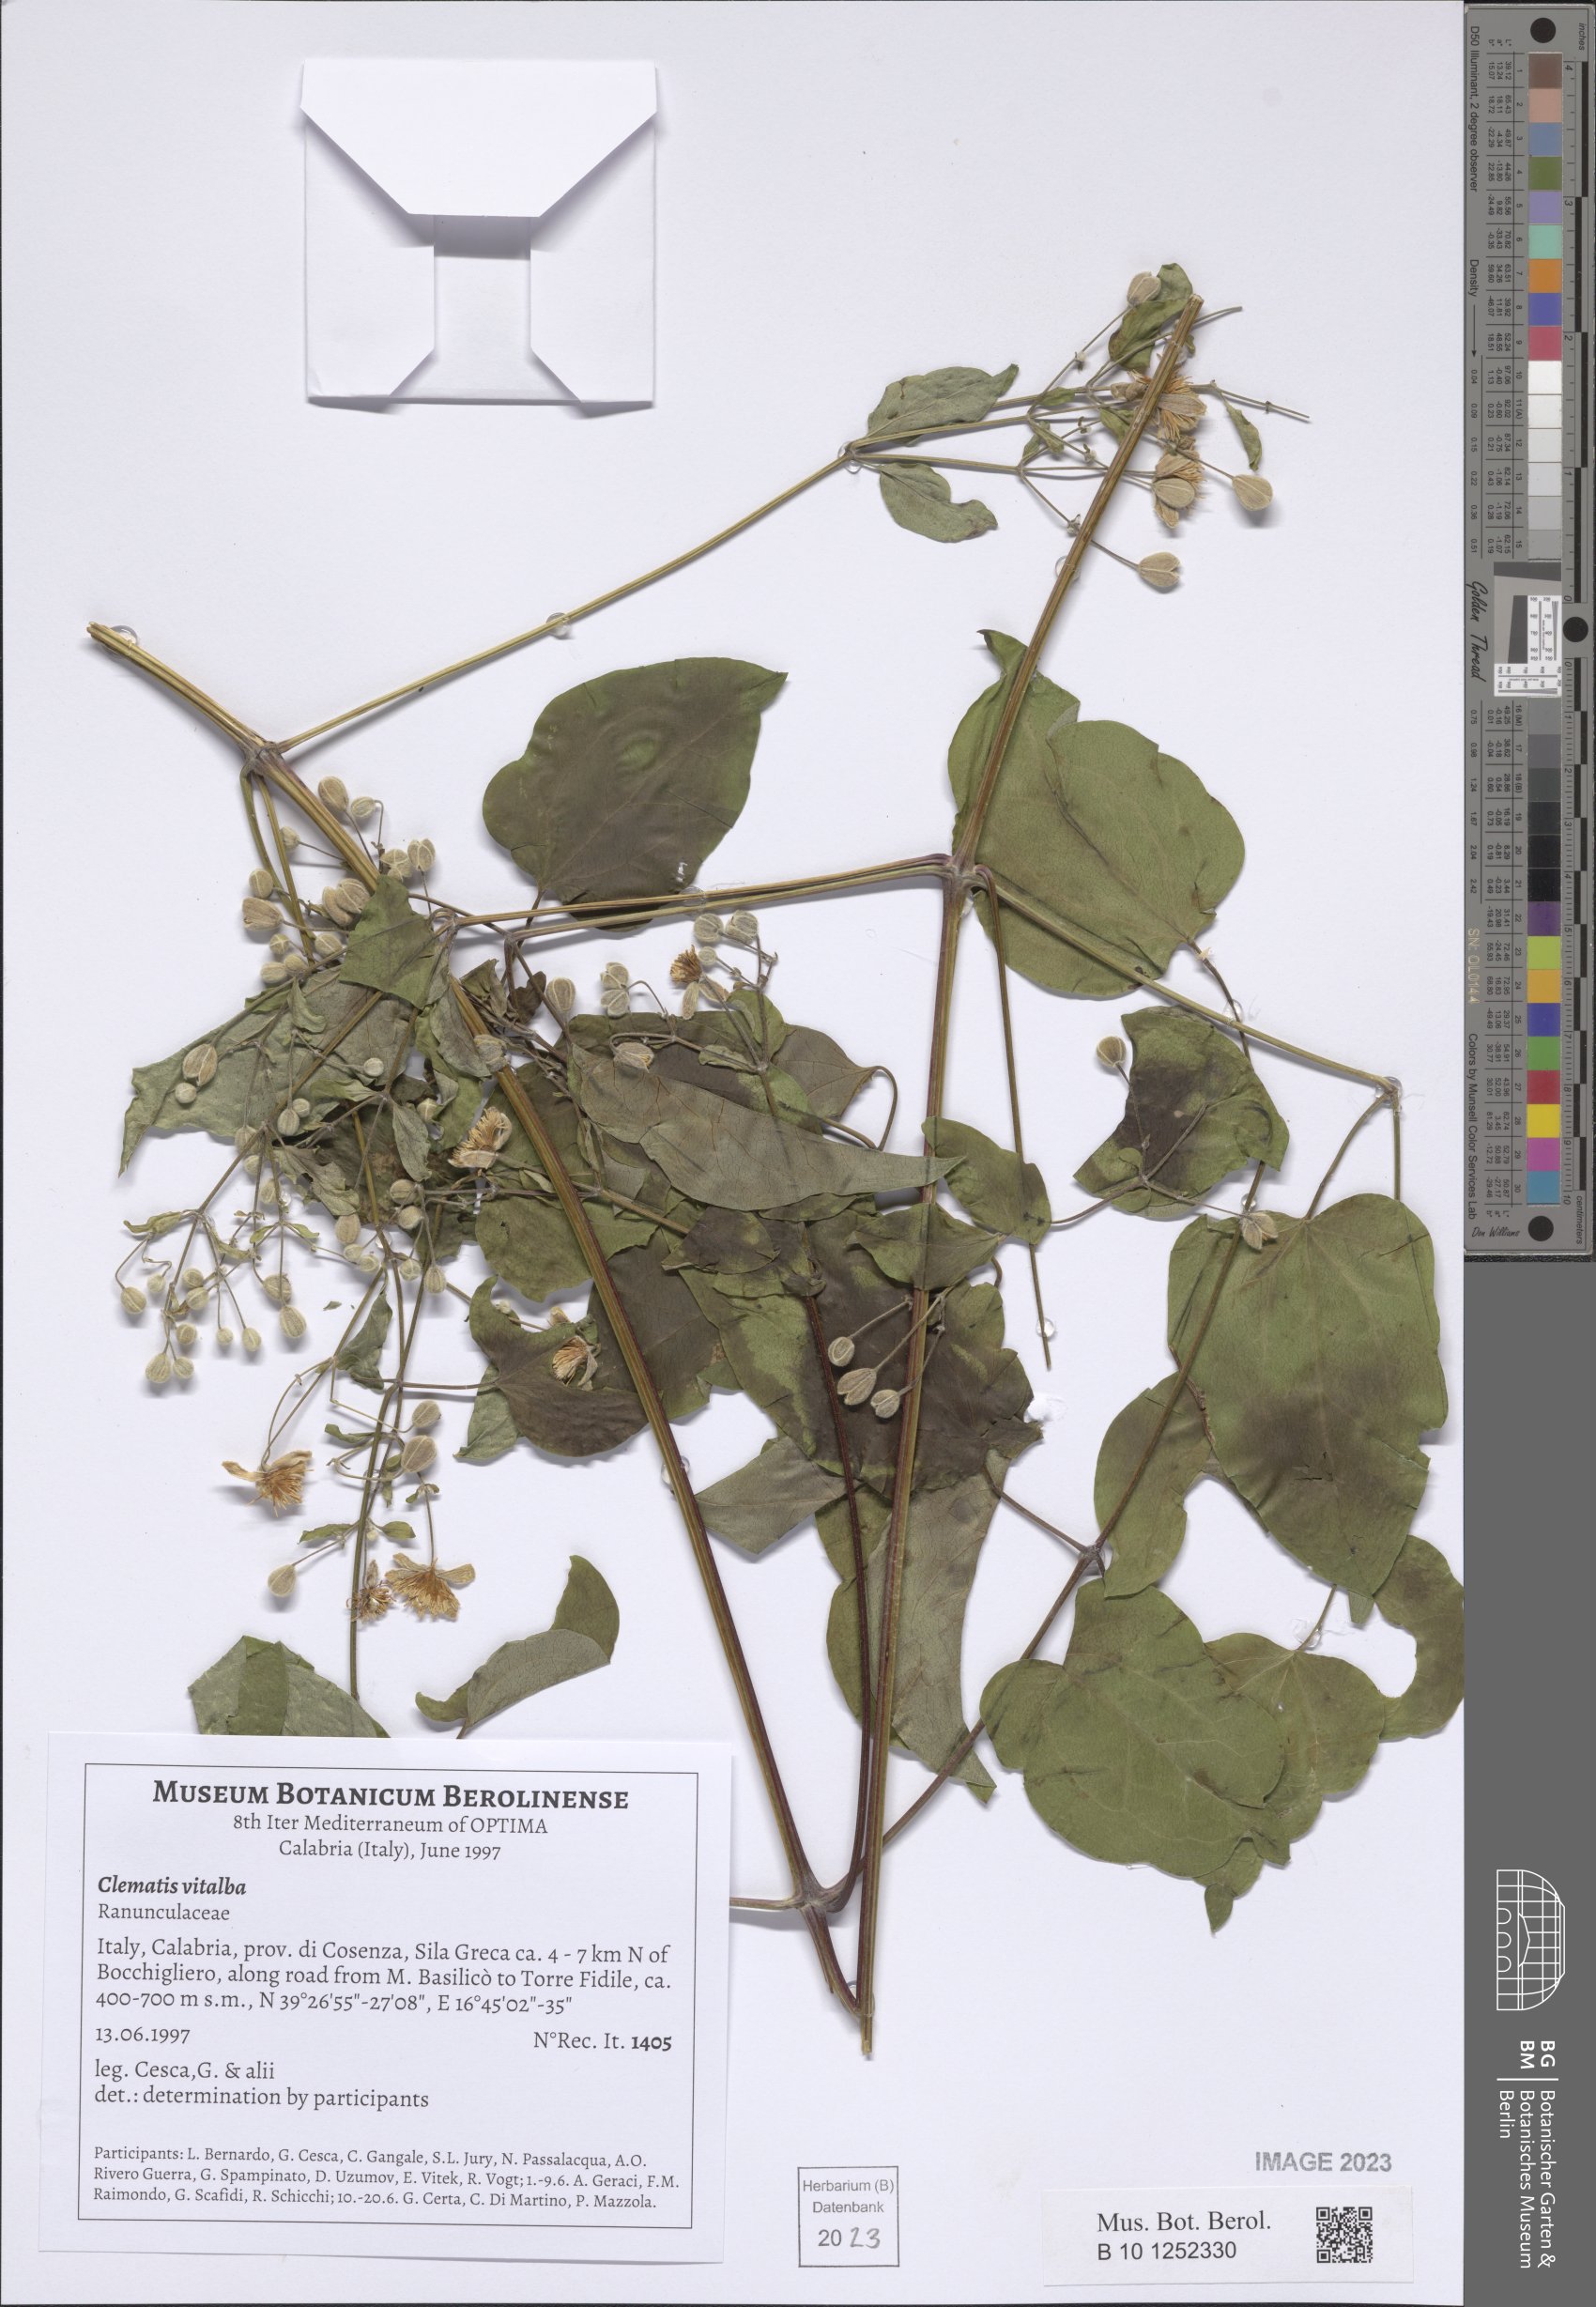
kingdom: Plantae
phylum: Tracheophyta
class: Magnoliopsida
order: Ranunculales
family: Ranunculaceae
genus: Clematis
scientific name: Clematis vitalba
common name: Evergreen clematis
